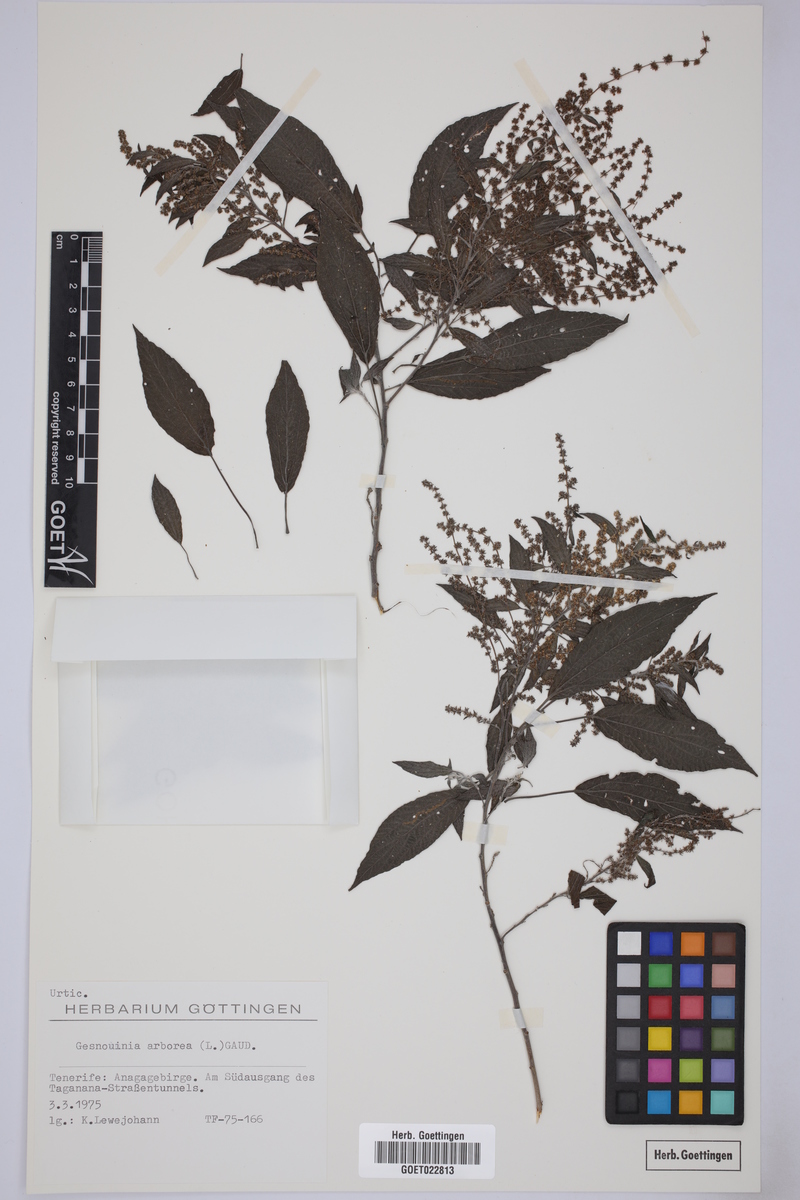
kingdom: Plantae
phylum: Tracheophyta
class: Magnoliopsida
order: Rosales
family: Urticaceae
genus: Gesnouinia
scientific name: Gesnouinia arborea
